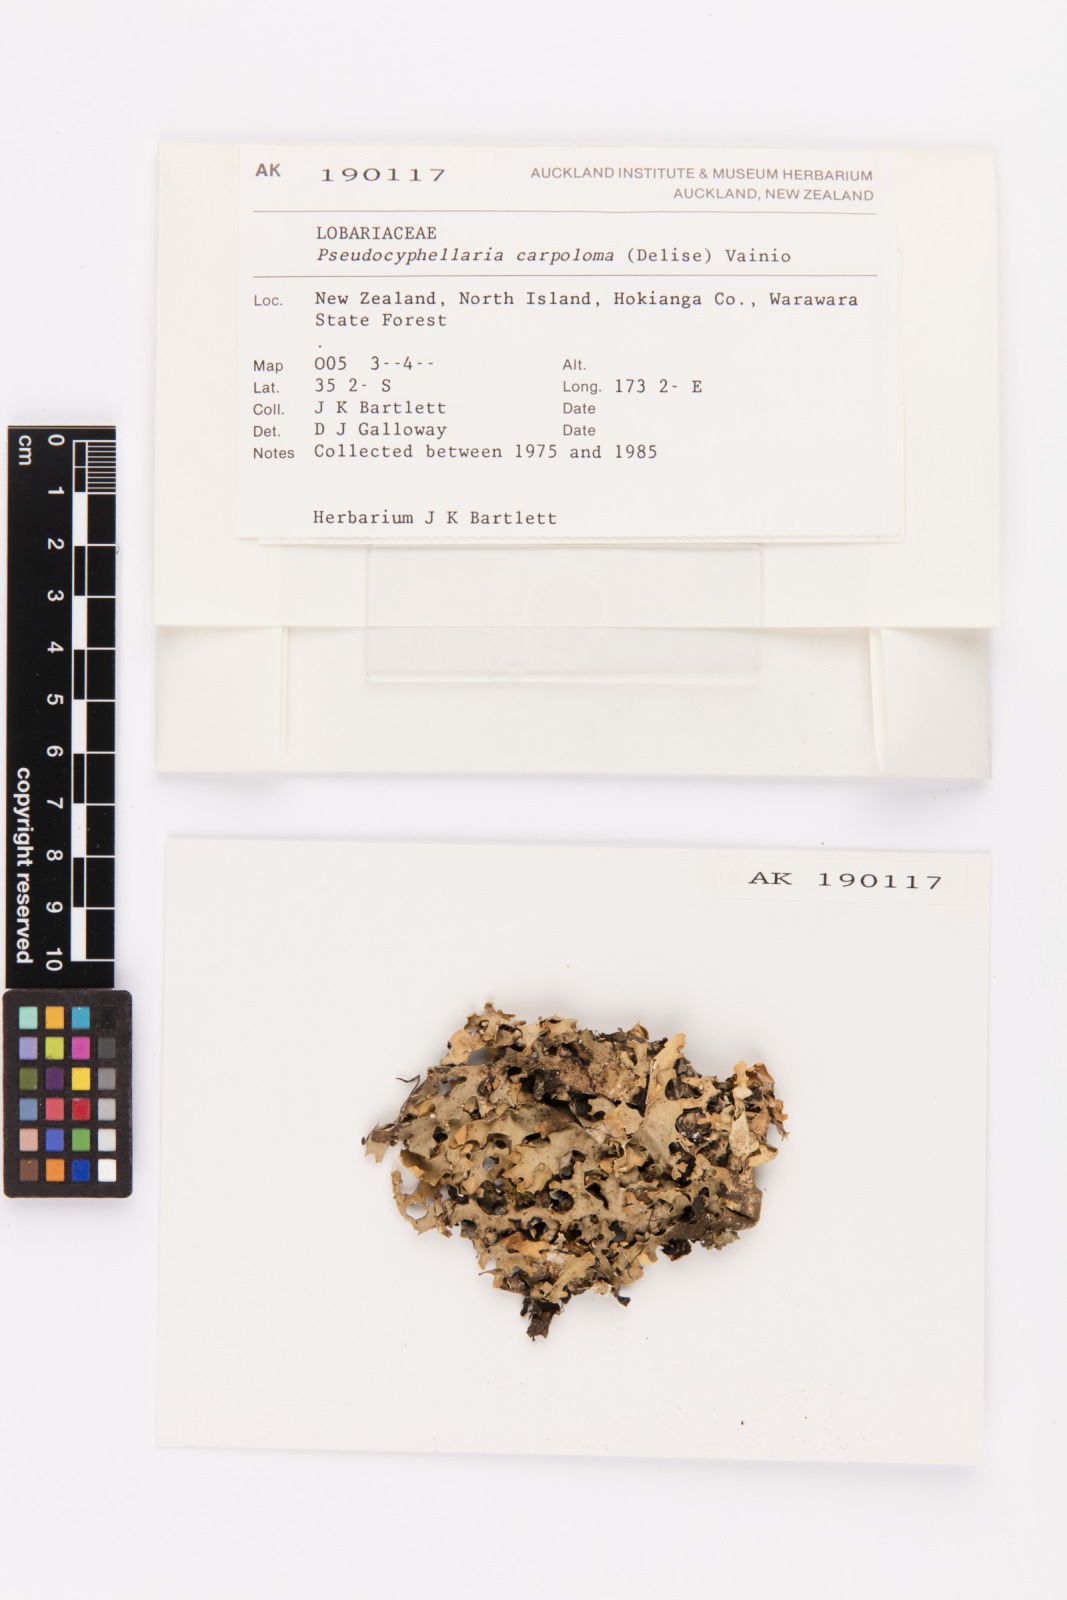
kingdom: Fungi
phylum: Ascomycota
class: Lecanoromycetes
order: Peltigerales
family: Lobariaceae
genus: Pseudocyphellaria
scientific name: Pseudocyphellaria carpoloma
